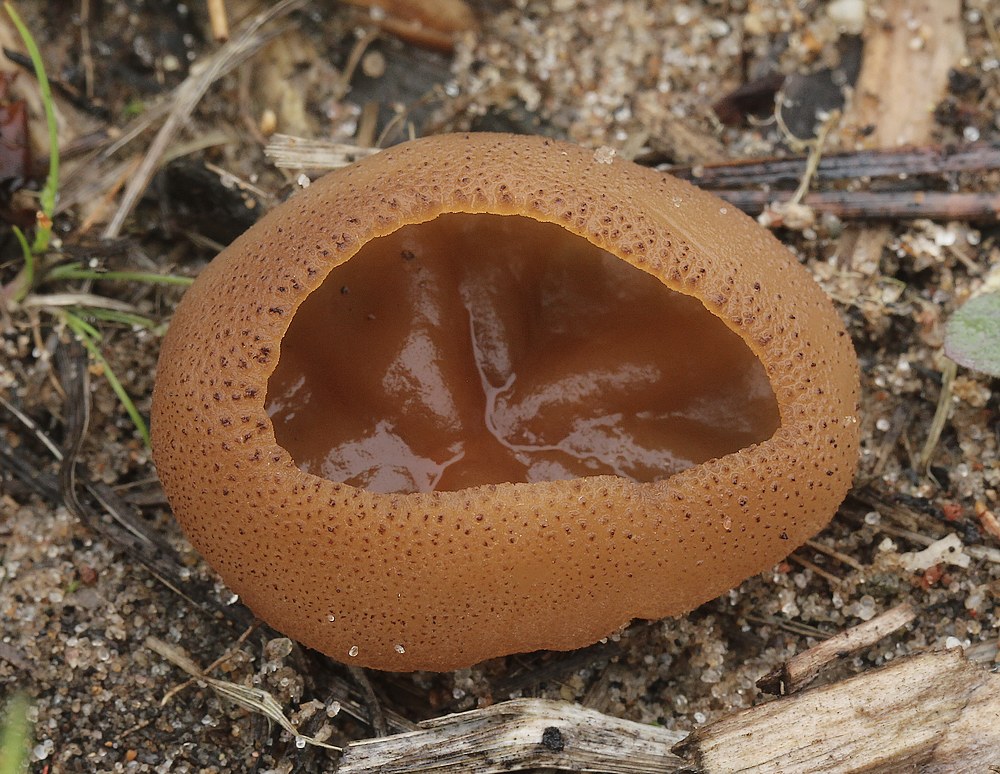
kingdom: Fungi
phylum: Ascomycota
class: Pezizomycetes
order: Pezizales
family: Pezizaceae
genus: Peziza
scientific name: Peziza
